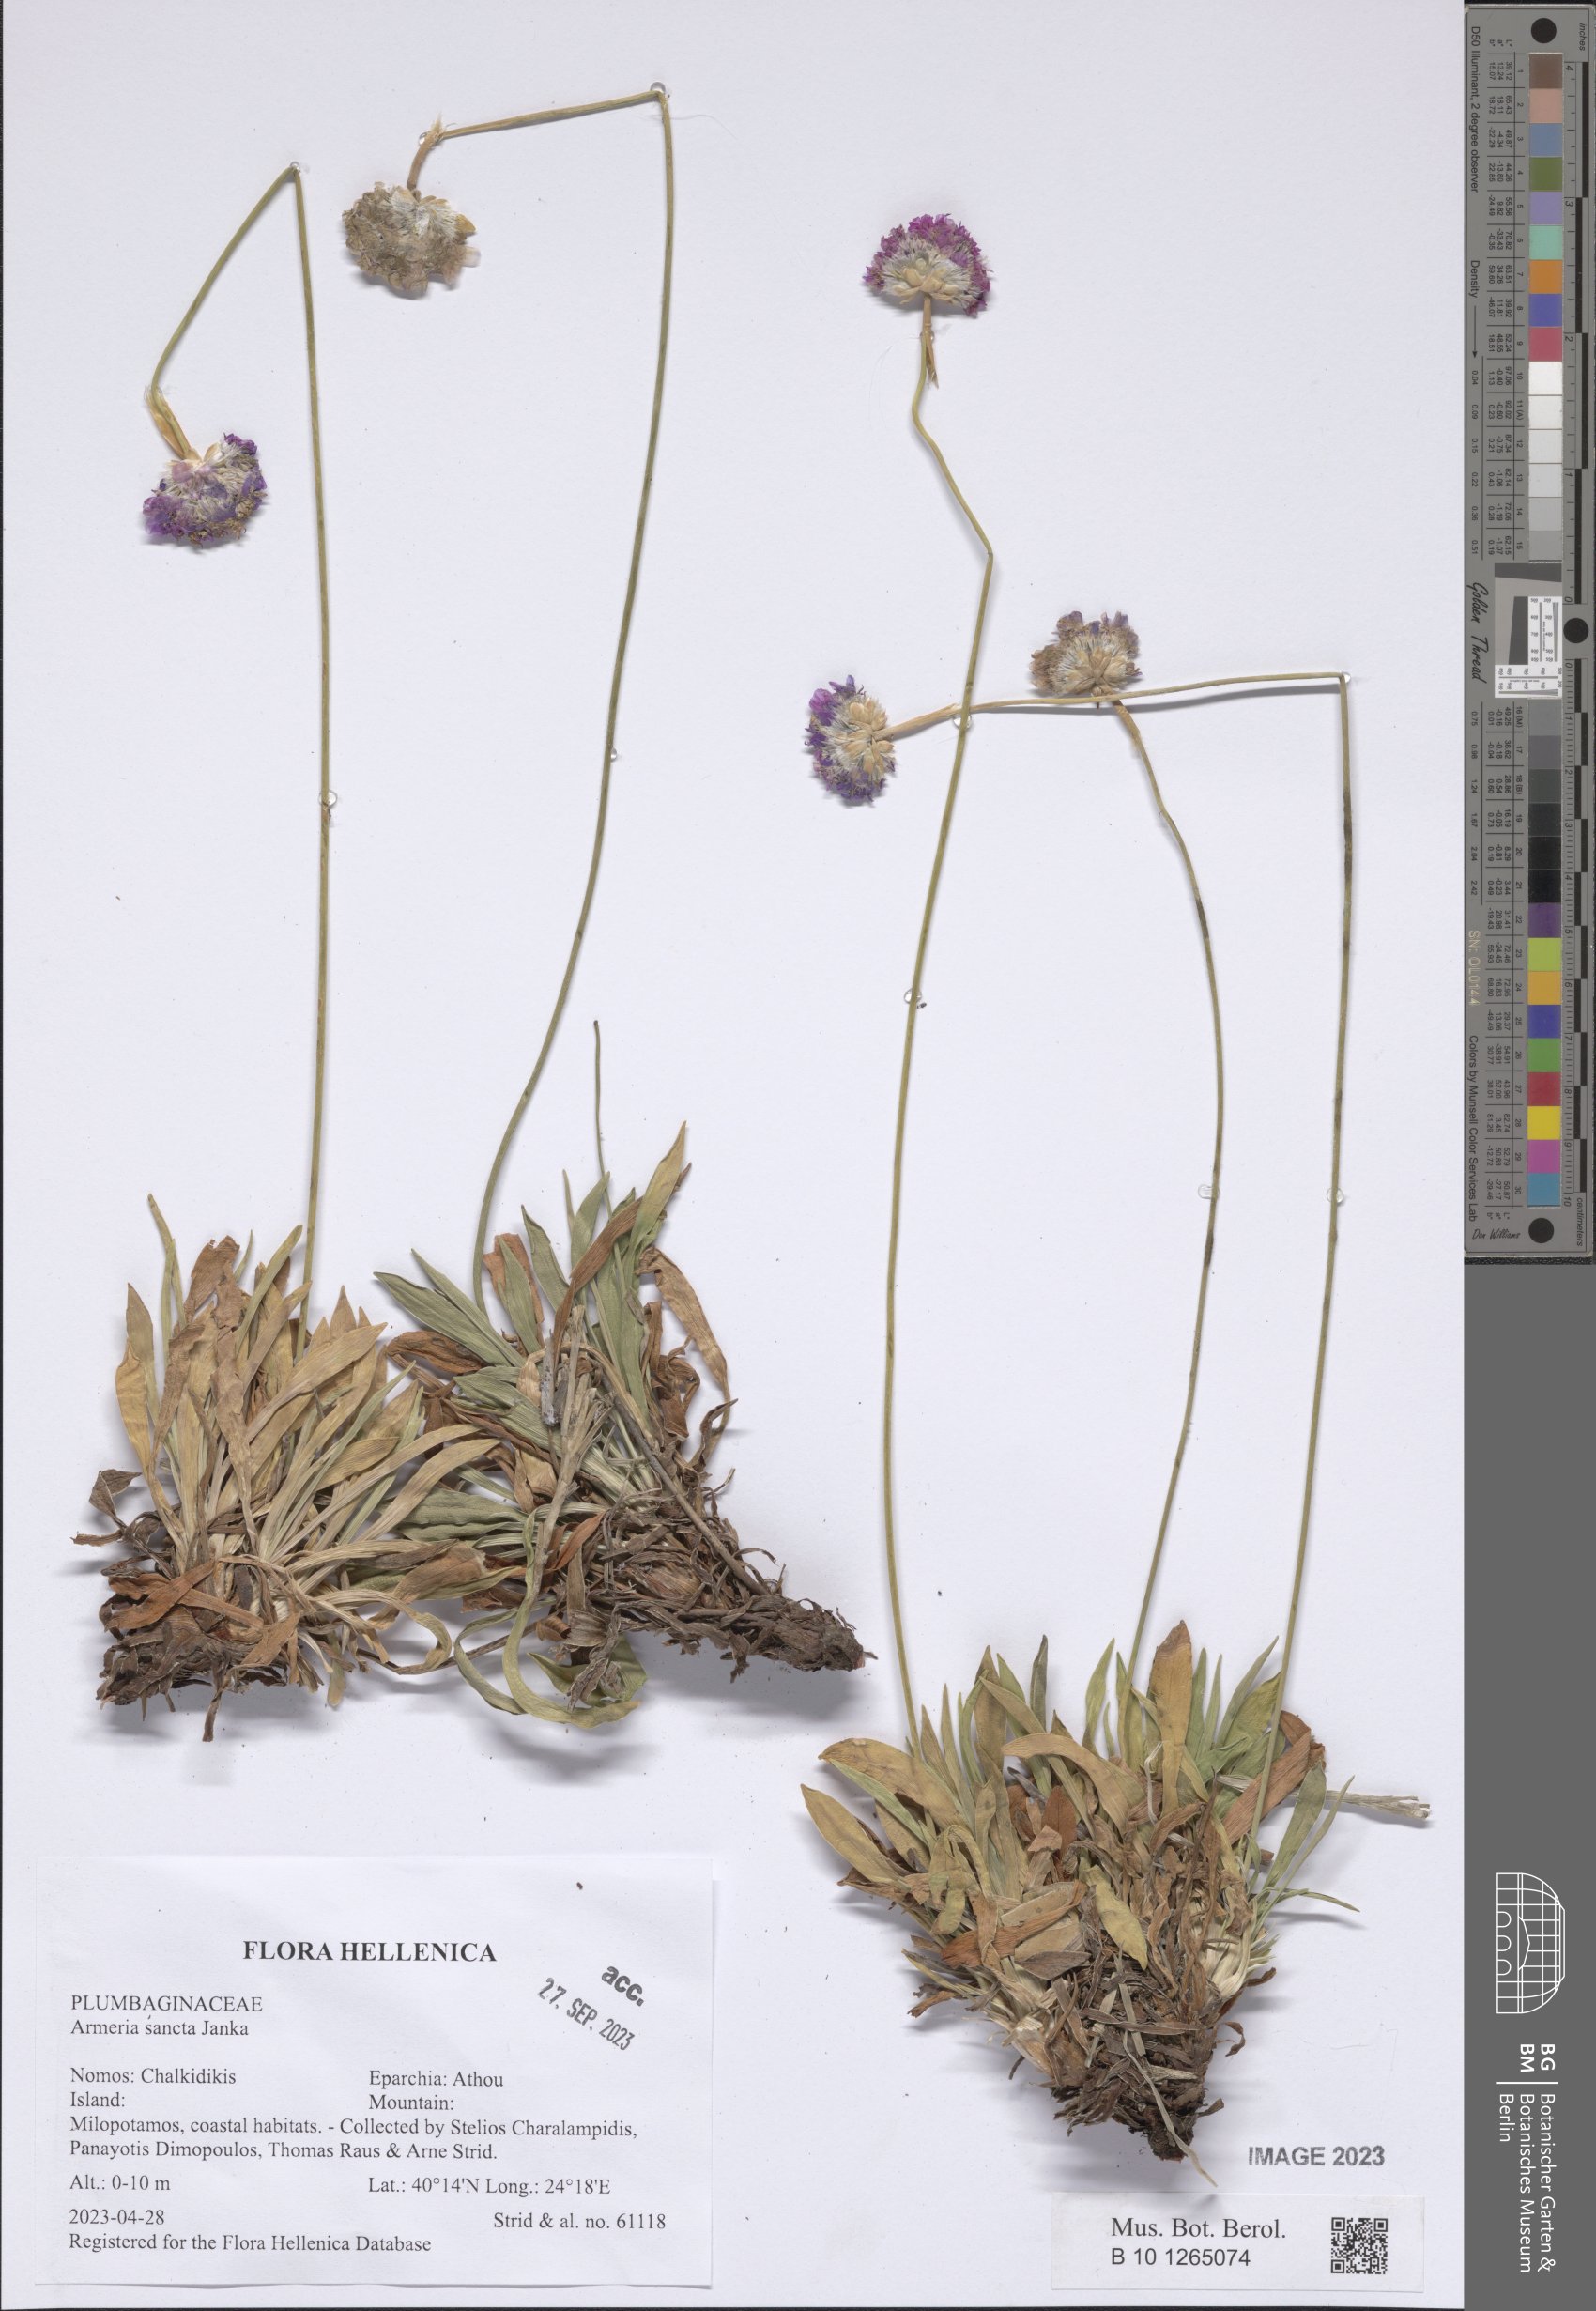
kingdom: Plantae
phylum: Tracheophyta
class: Magnoliopsida
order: Caryophyllales
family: Plumbaginaceae
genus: Armeria
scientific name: Armeria sancta
